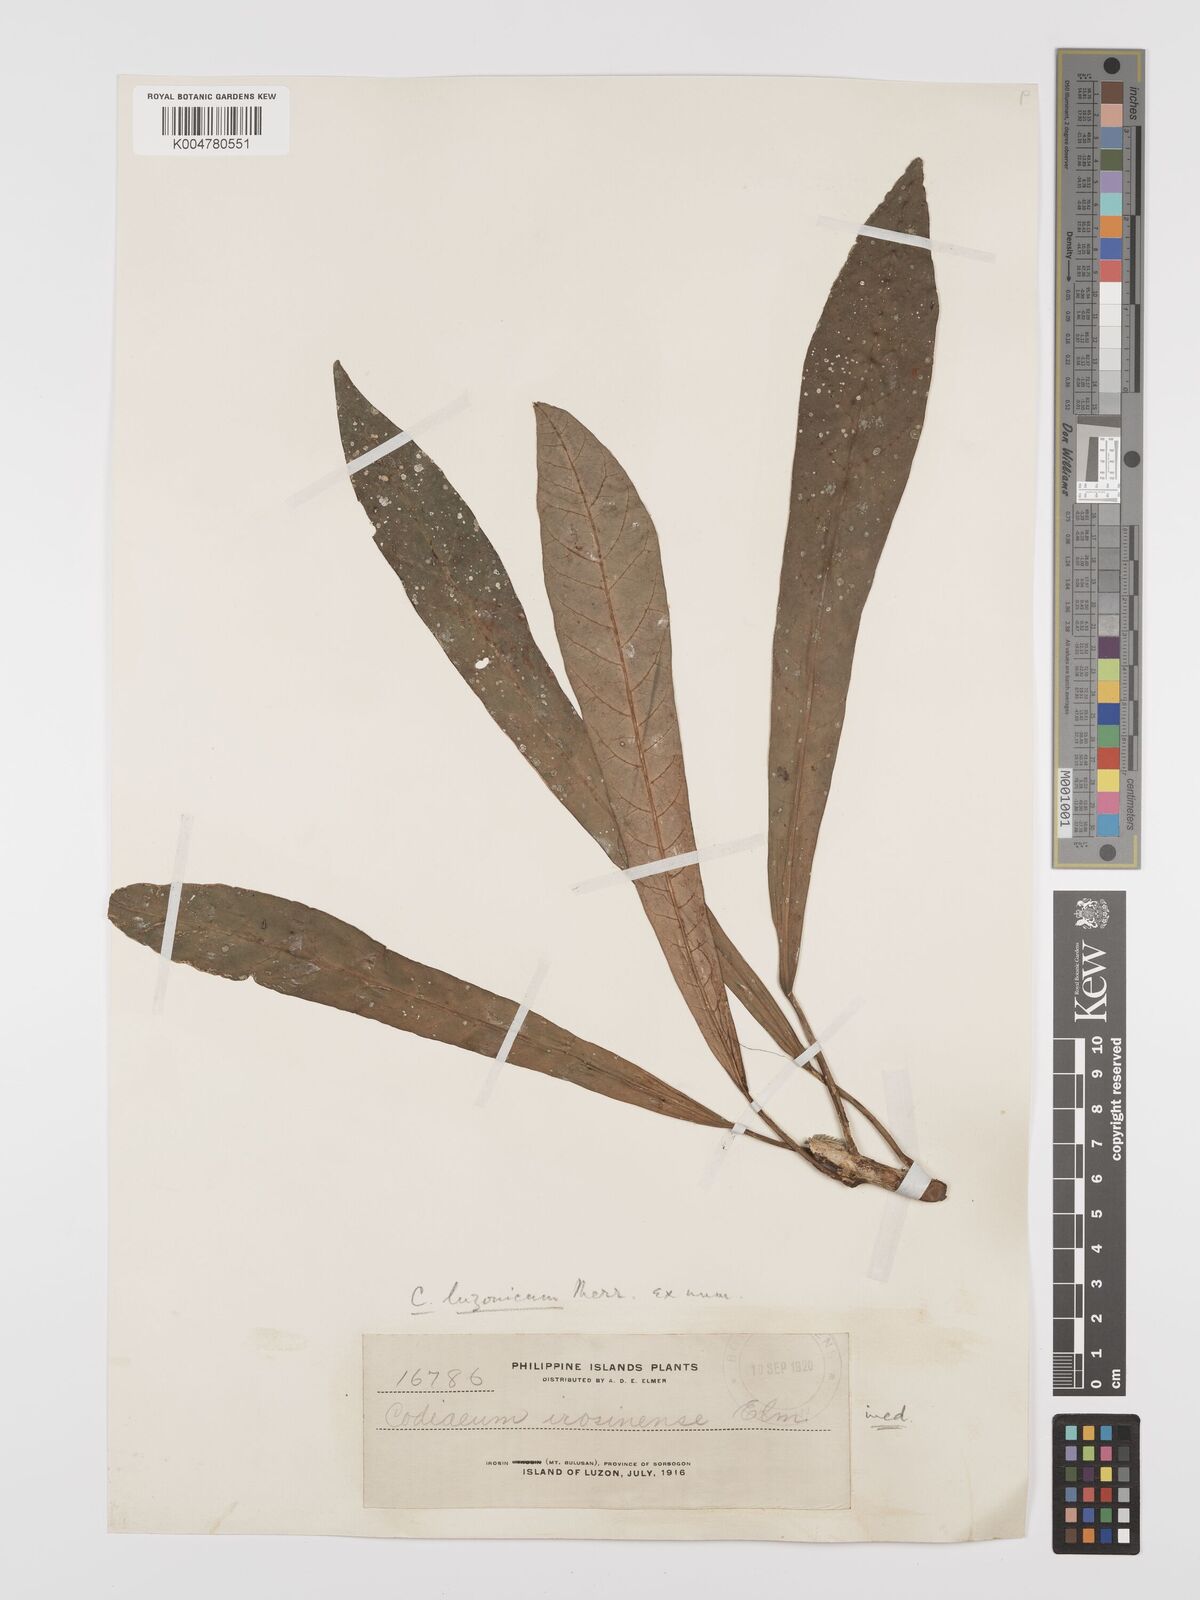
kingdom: Plantae
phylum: Tracheophyta
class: Magnoliopsida
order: Malpighiales
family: Euphorbiaceae
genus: Codiaeum
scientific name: Codiaeum luzonicum
